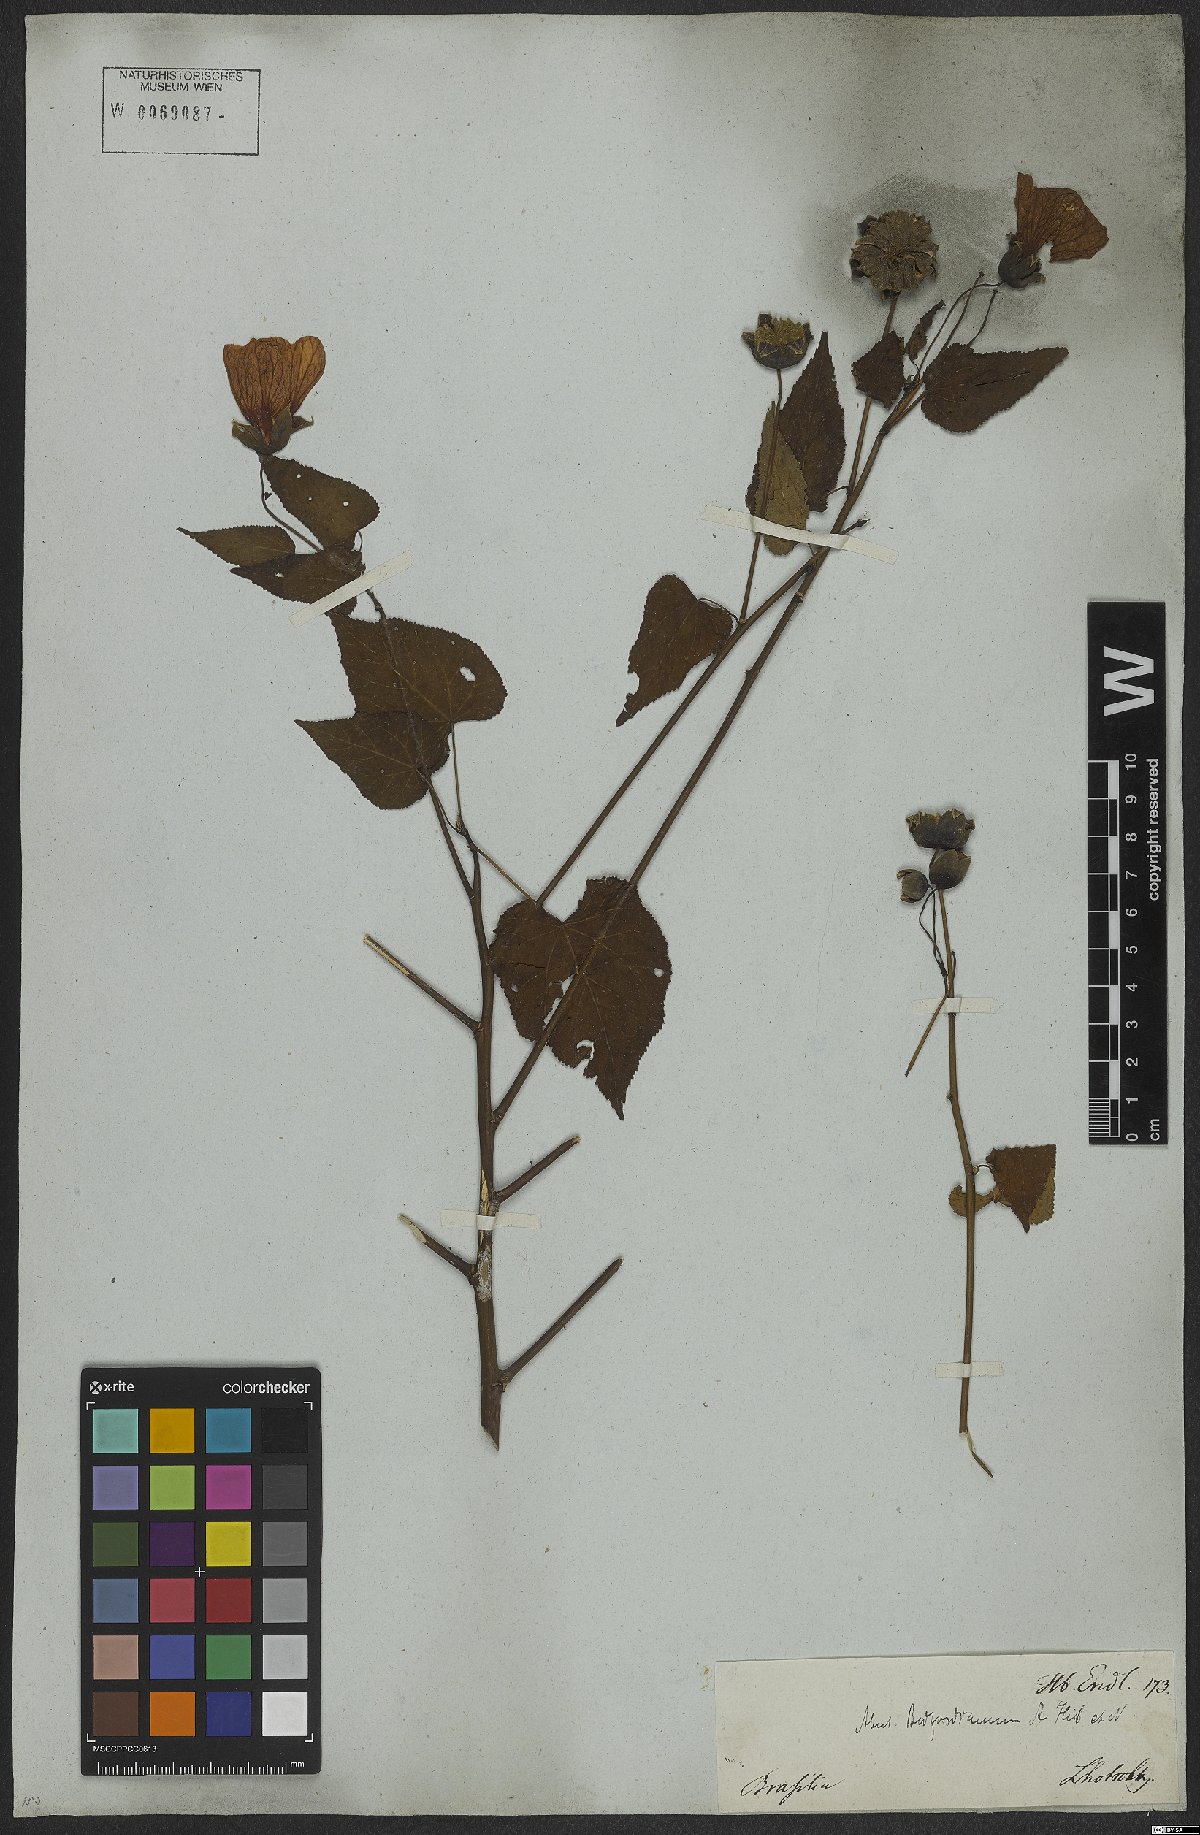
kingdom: Plantae
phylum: Tracheophyta
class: Magnoliopsida
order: Malvales
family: Malvaceae
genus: Callianthe
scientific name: Callianthe bedfordiana
